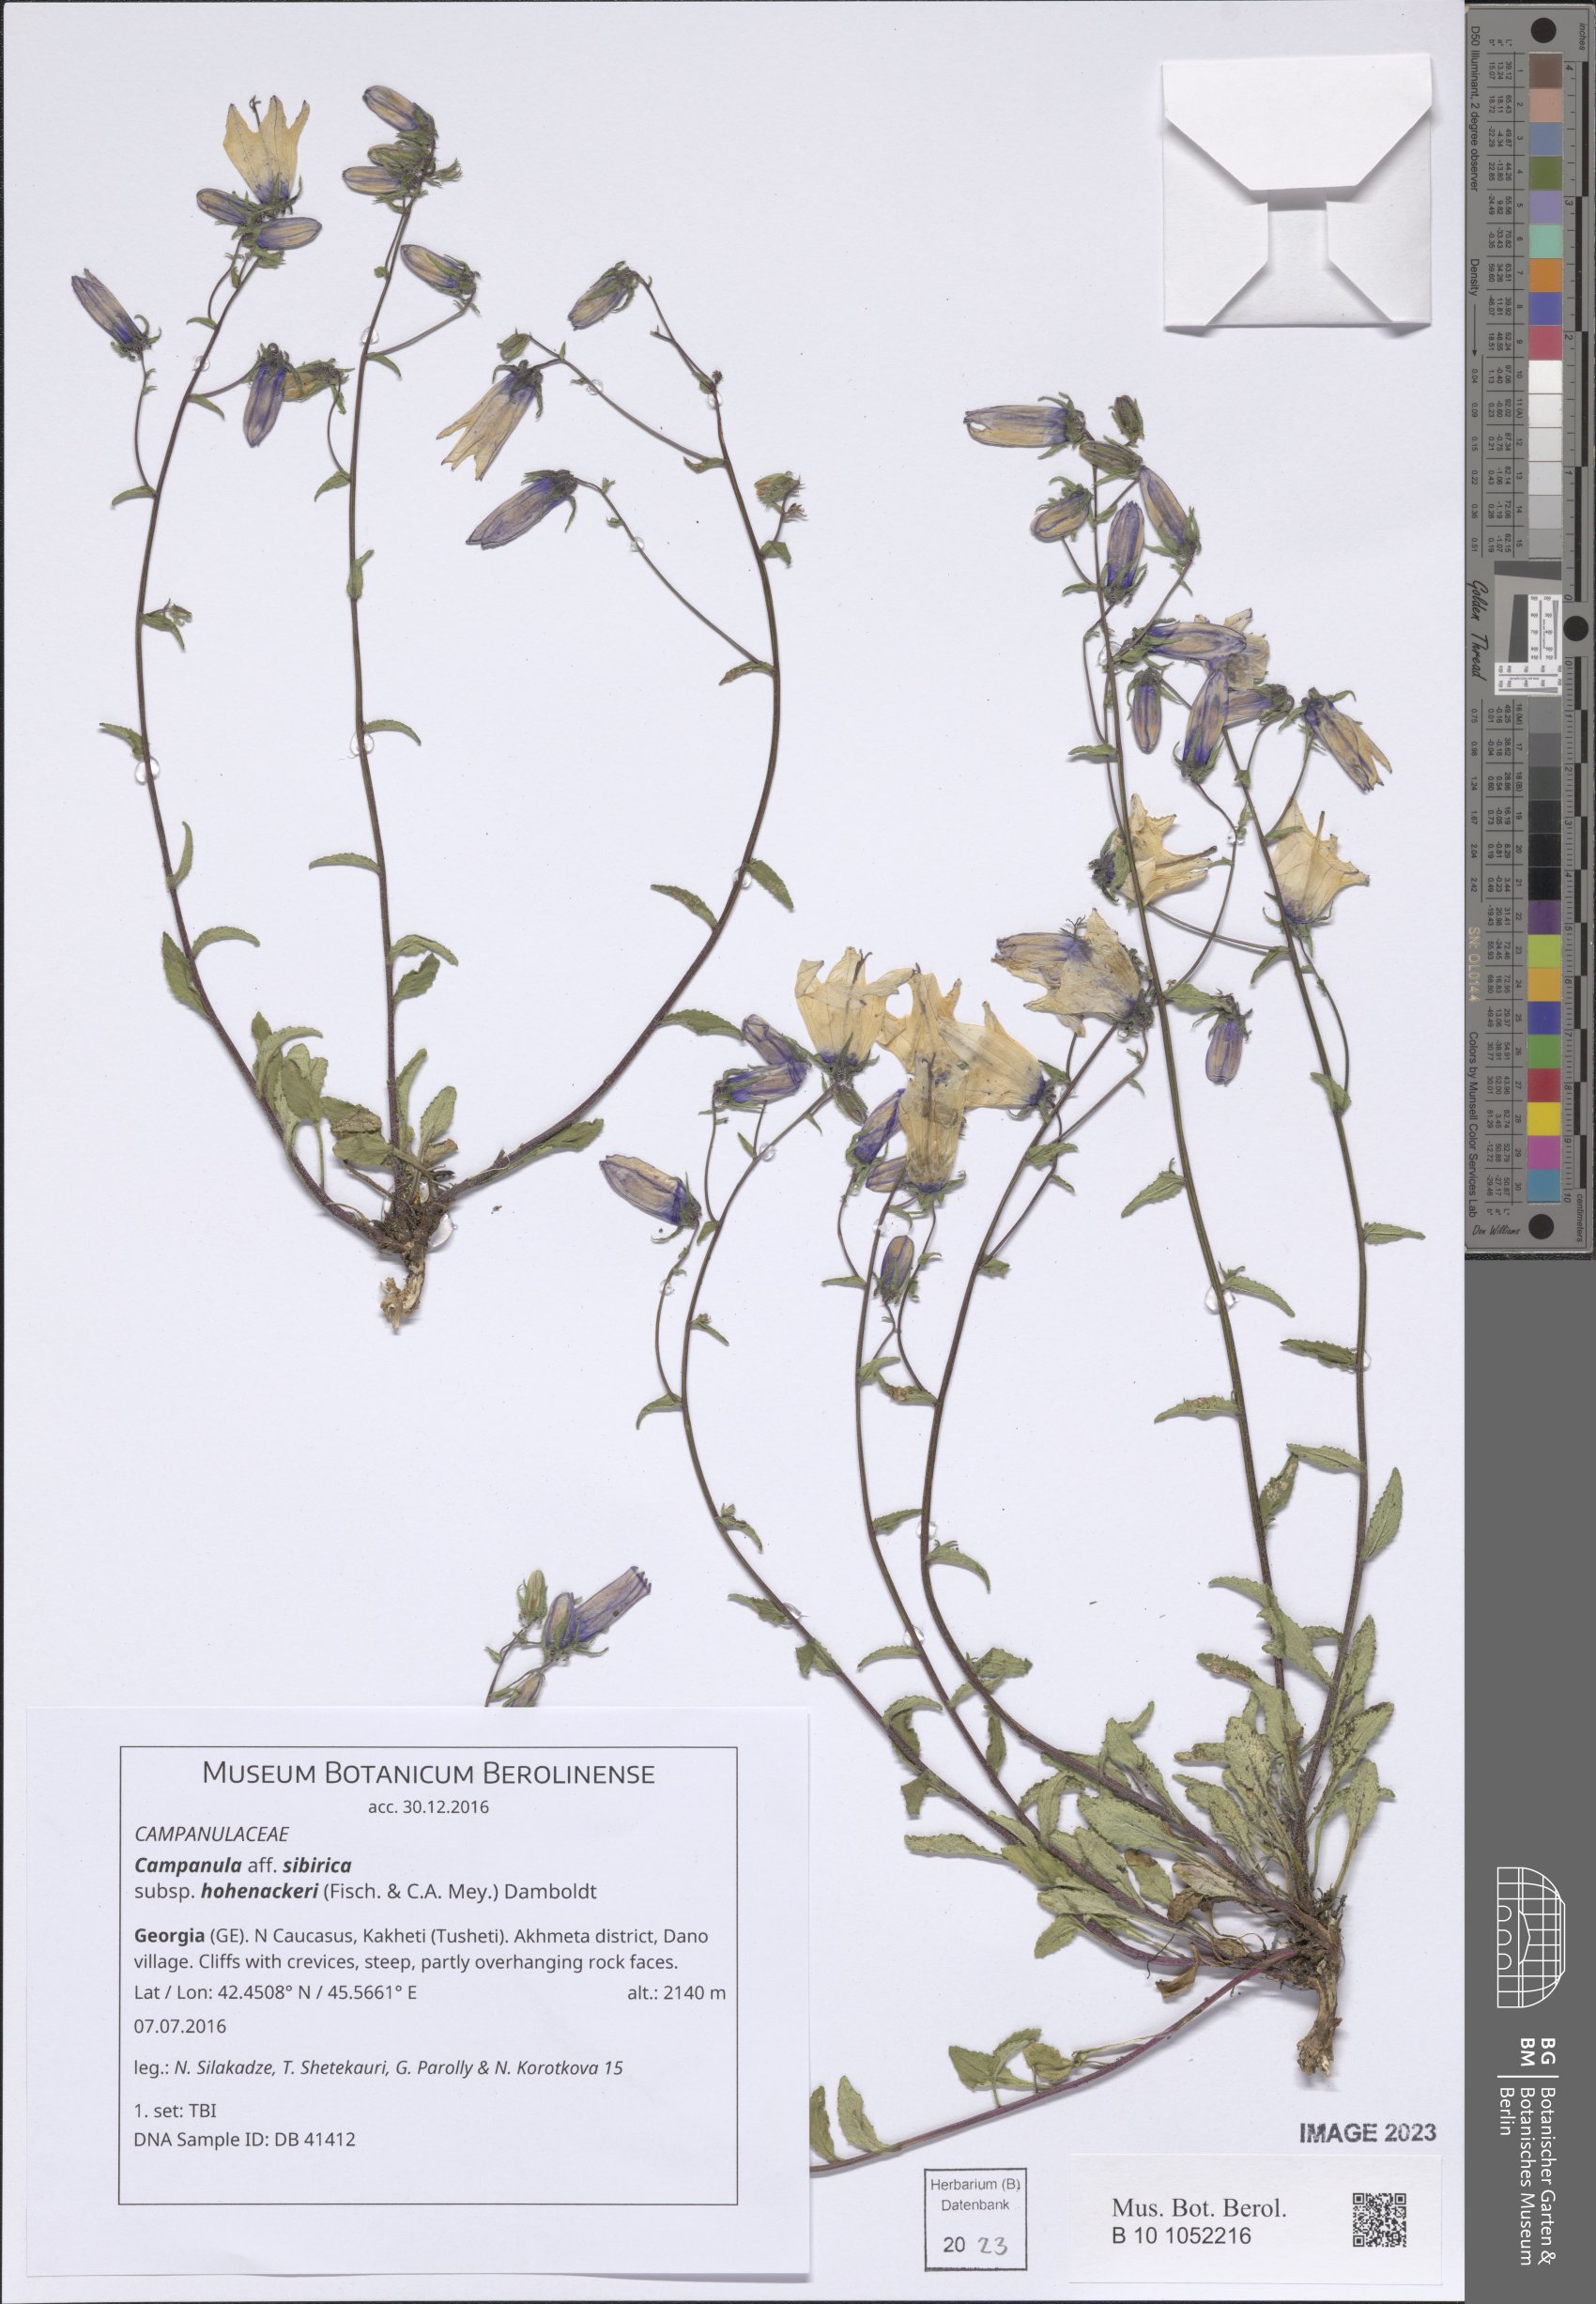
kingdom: Plantae
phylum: Tracheophyta
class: Magnoliopsida
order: Asterales
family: Campanulaceae
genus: Campanula
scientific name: Campanula sibirica
